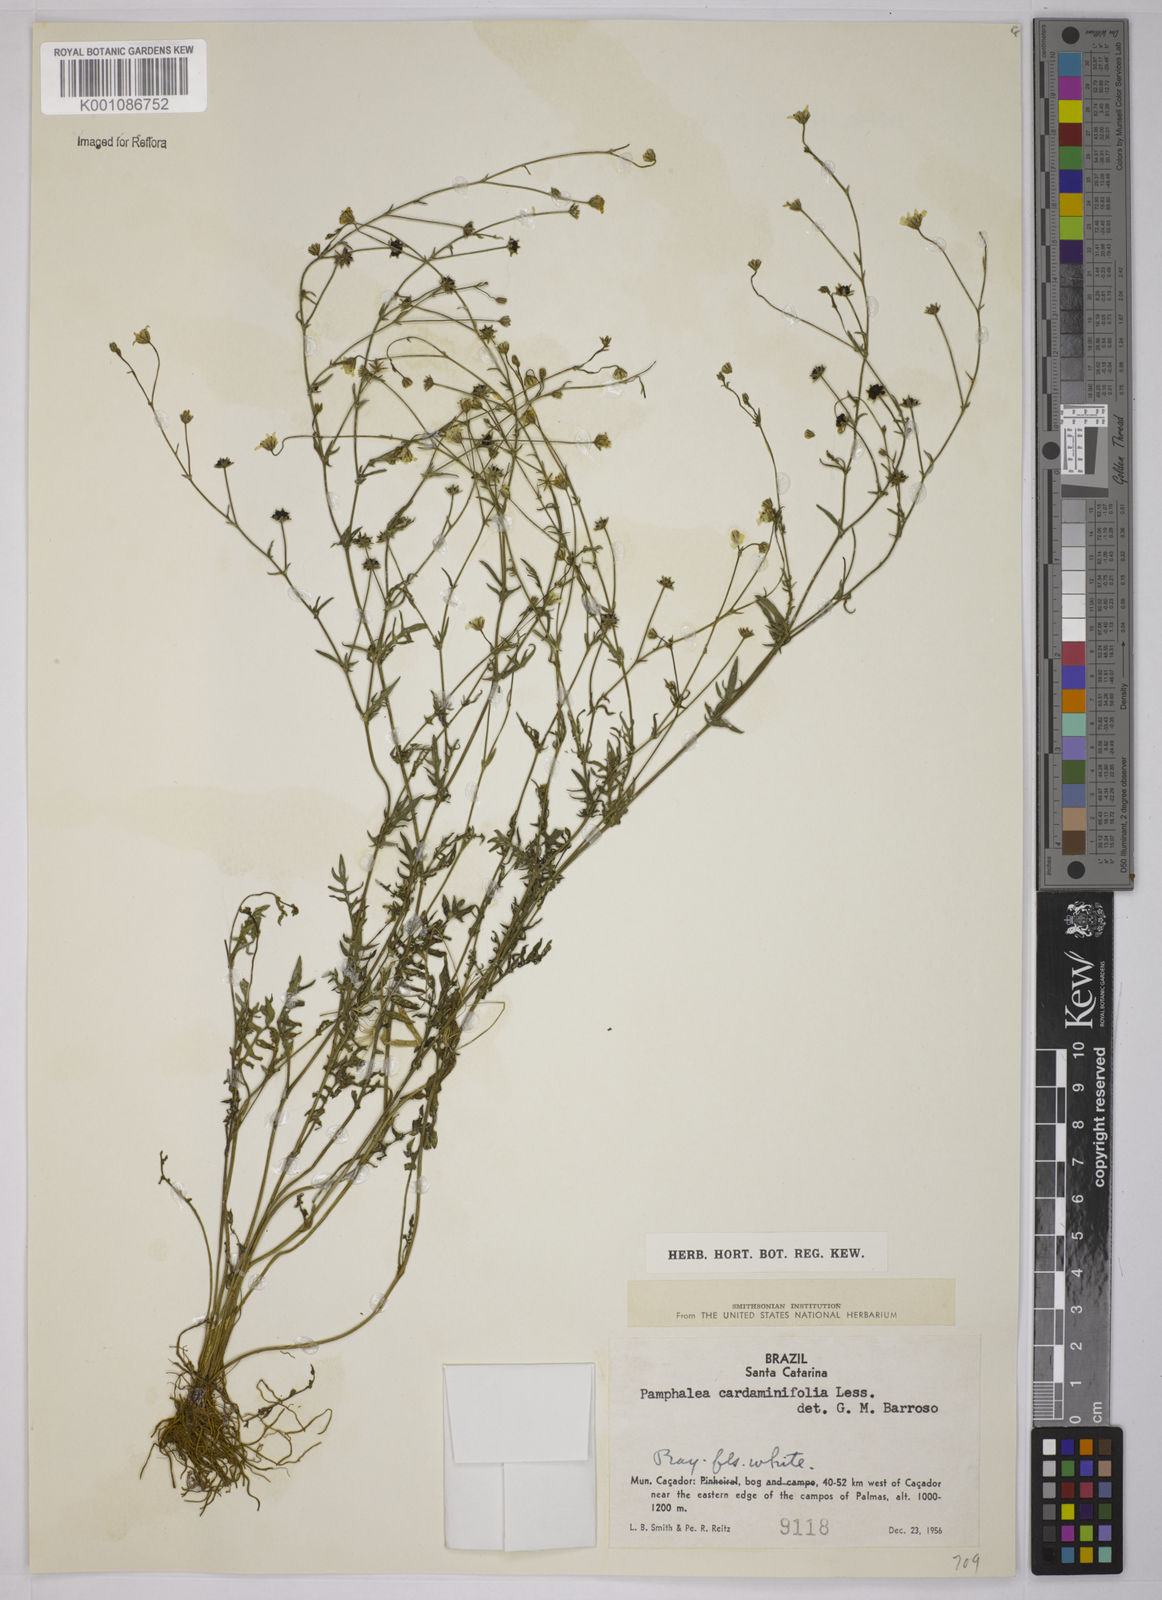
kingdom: Plantae
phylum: Tracheophyta
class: Magnoliopsida
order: Asterales
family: Asteraceae
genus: Pamphalea
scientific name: Pamphalea
